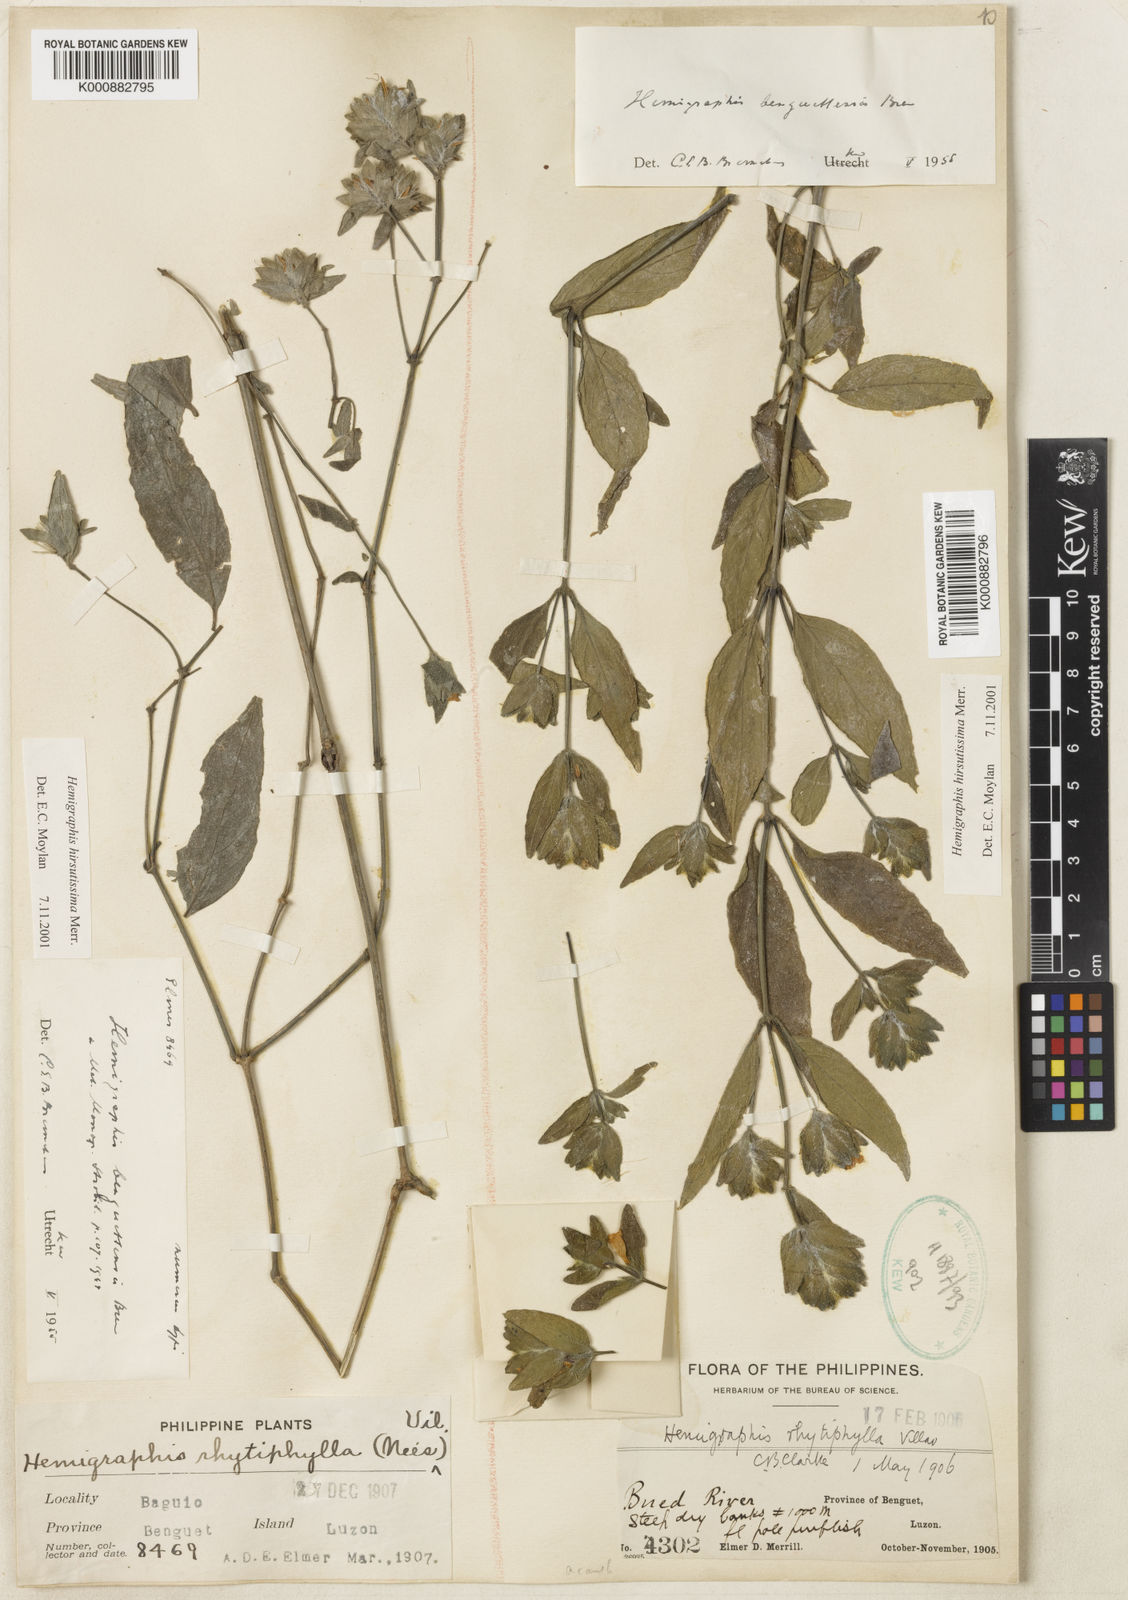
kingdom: Plantae
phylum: Tracheophyta
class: Magnoliopsida
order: Lamiales
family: Acanthaceae
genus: Strobilanthes
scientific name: Strobilanthes pauciflora
